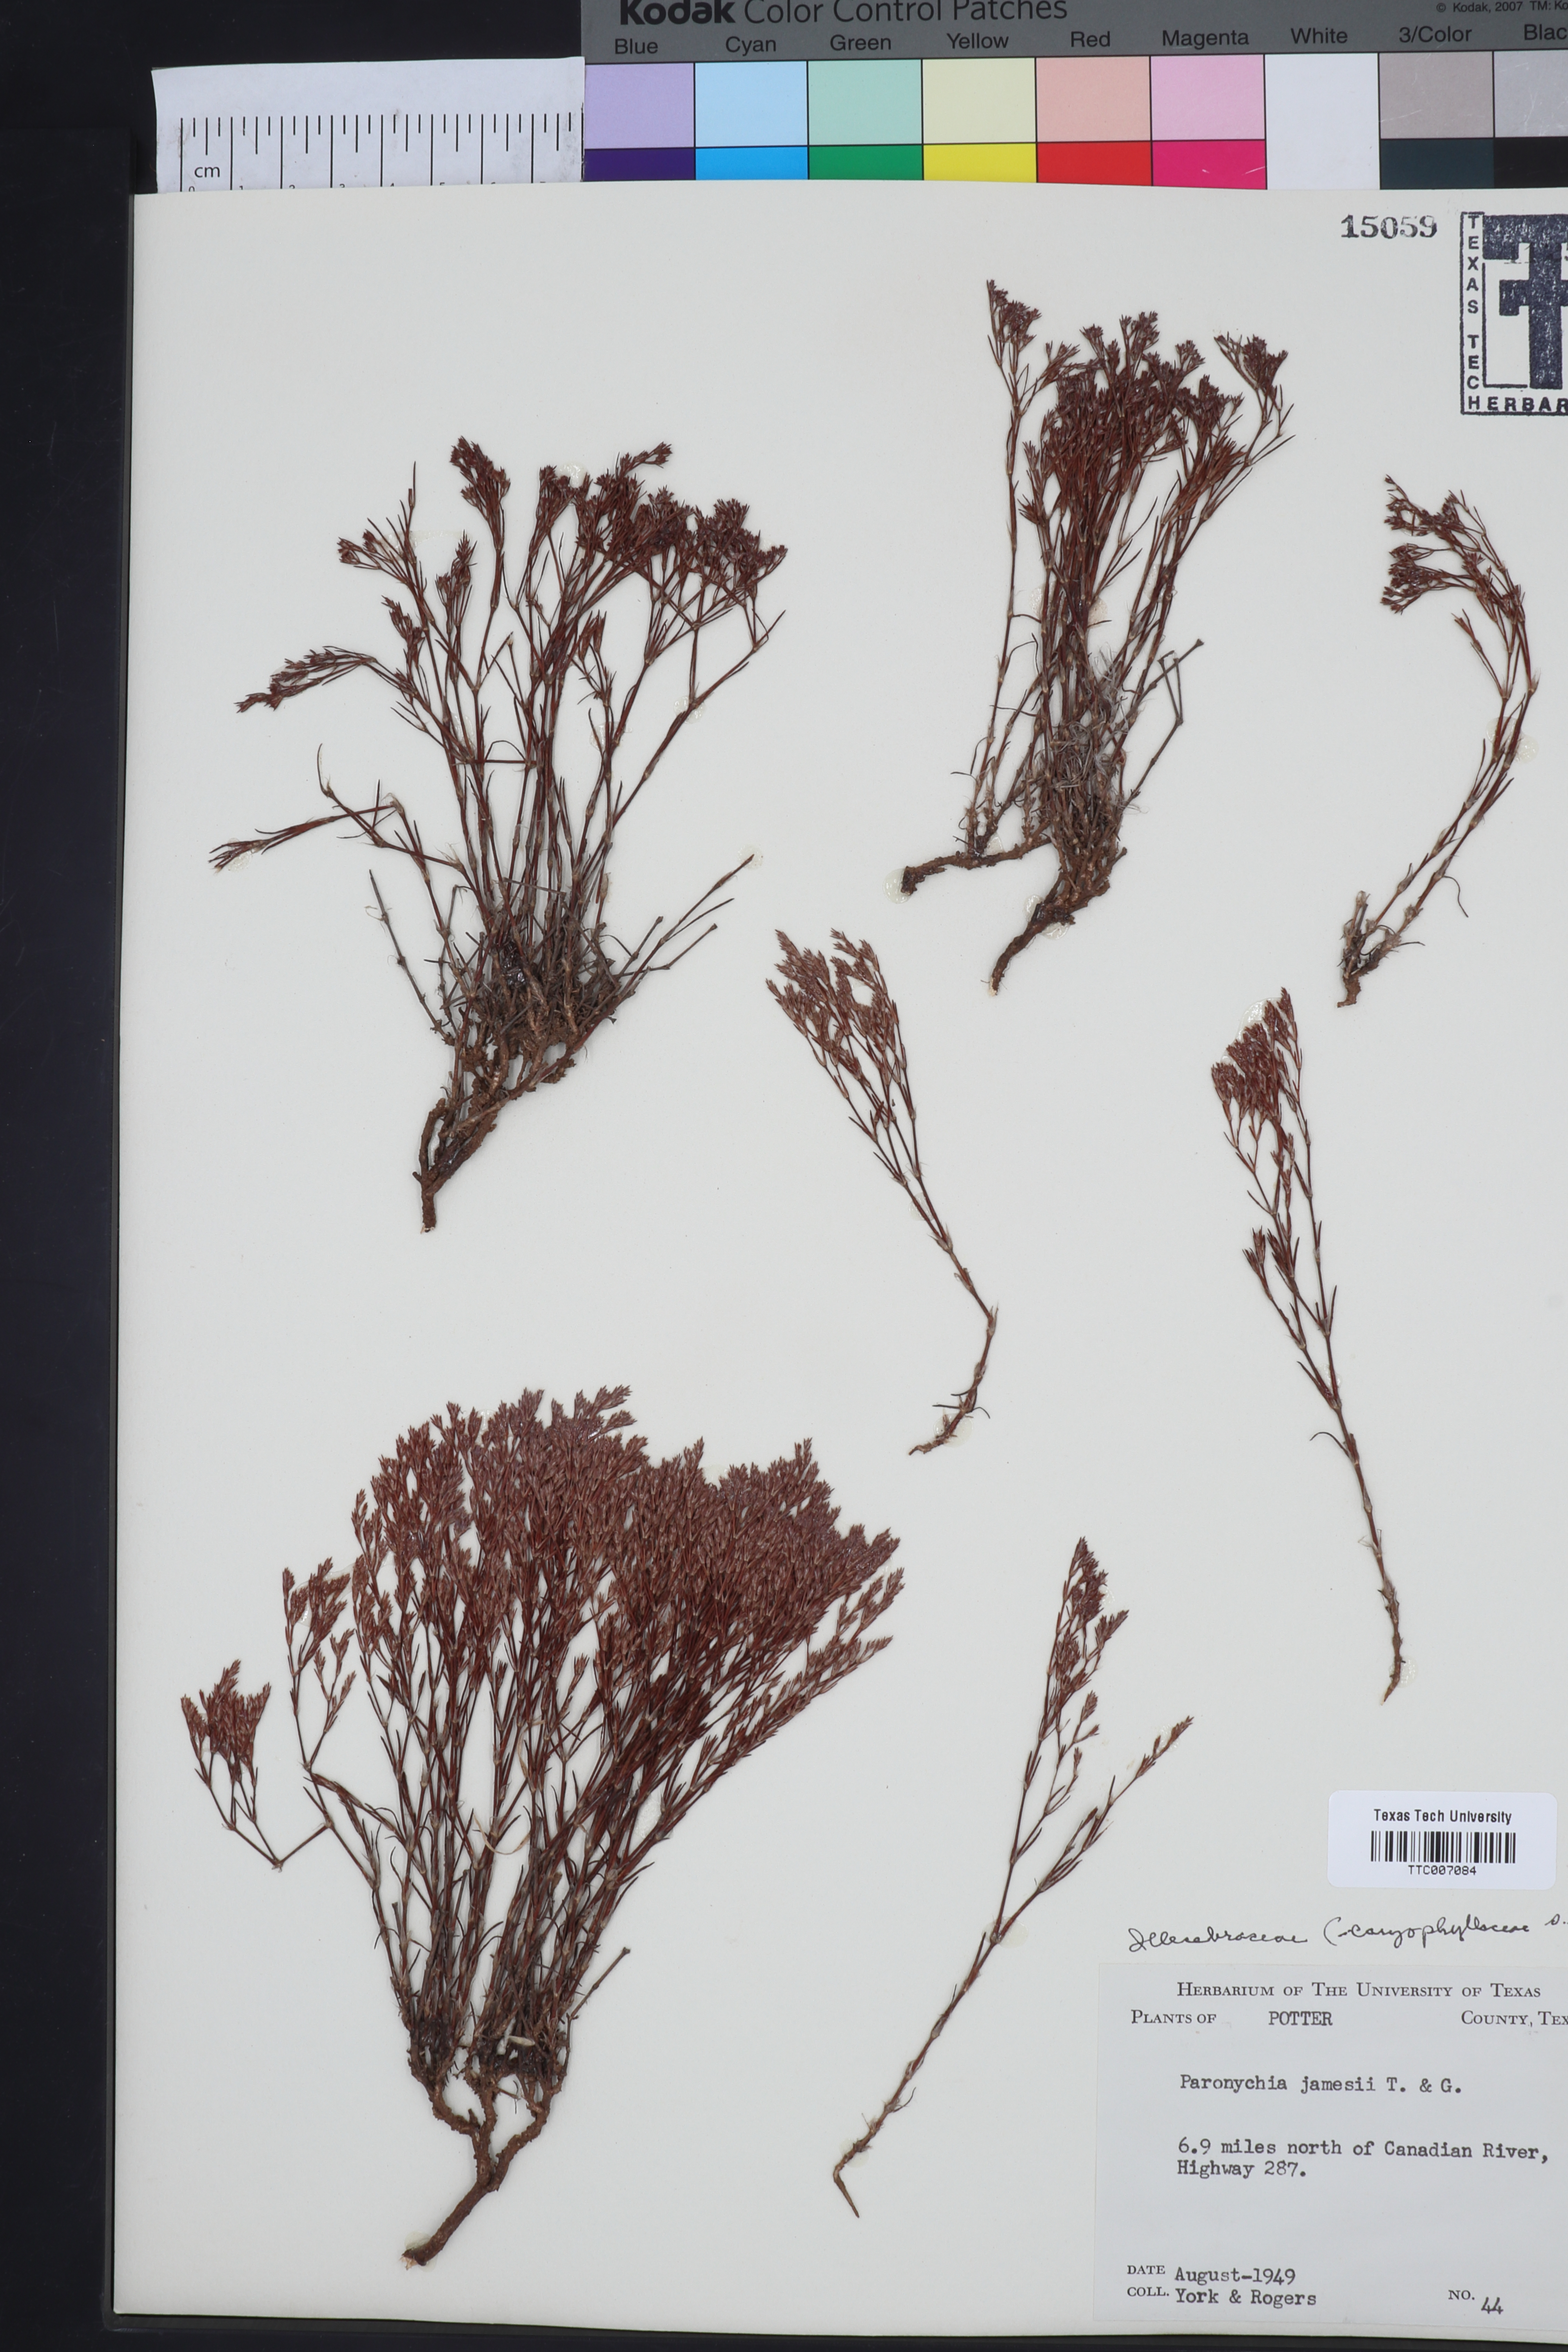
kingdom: Plantae
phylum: Tracheophyta
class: Magnoliopsida
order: Caryophyllales
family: Caryophyllaceae
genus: Paronychia
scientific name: Paronychia jamesii
